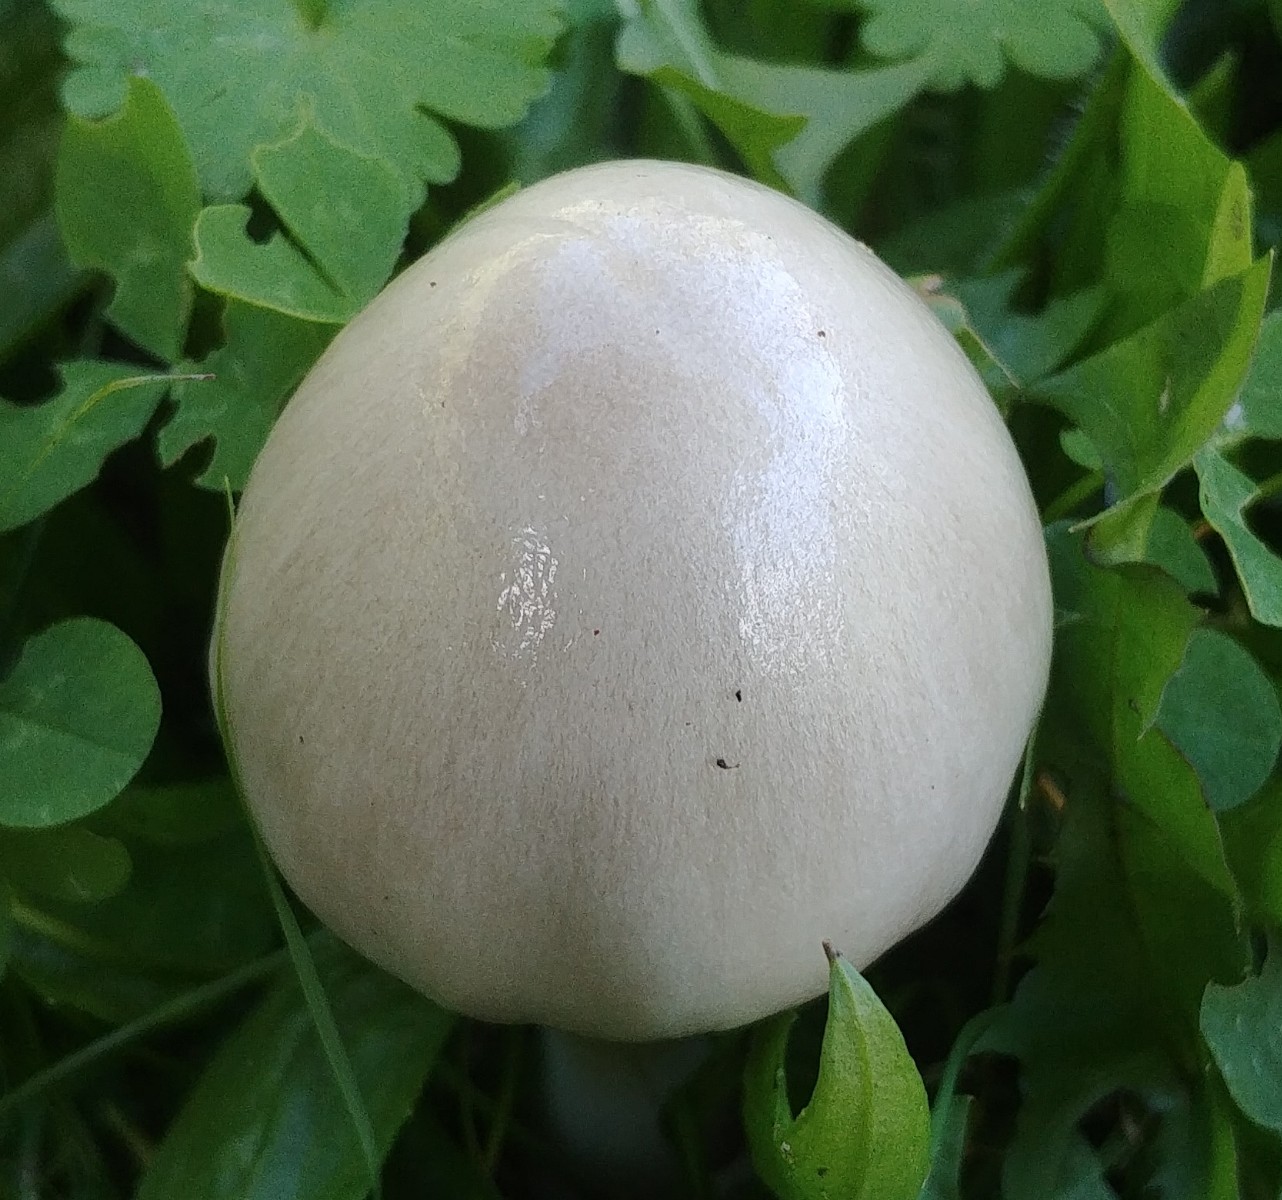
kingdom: Fungi
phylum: Basidiomycota
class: Agaricomycetes
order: Agaricales
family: Pluteaceae
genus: Volvopluteus
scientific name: Volvopluteus gloiocephalus
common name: høj posesvamp
